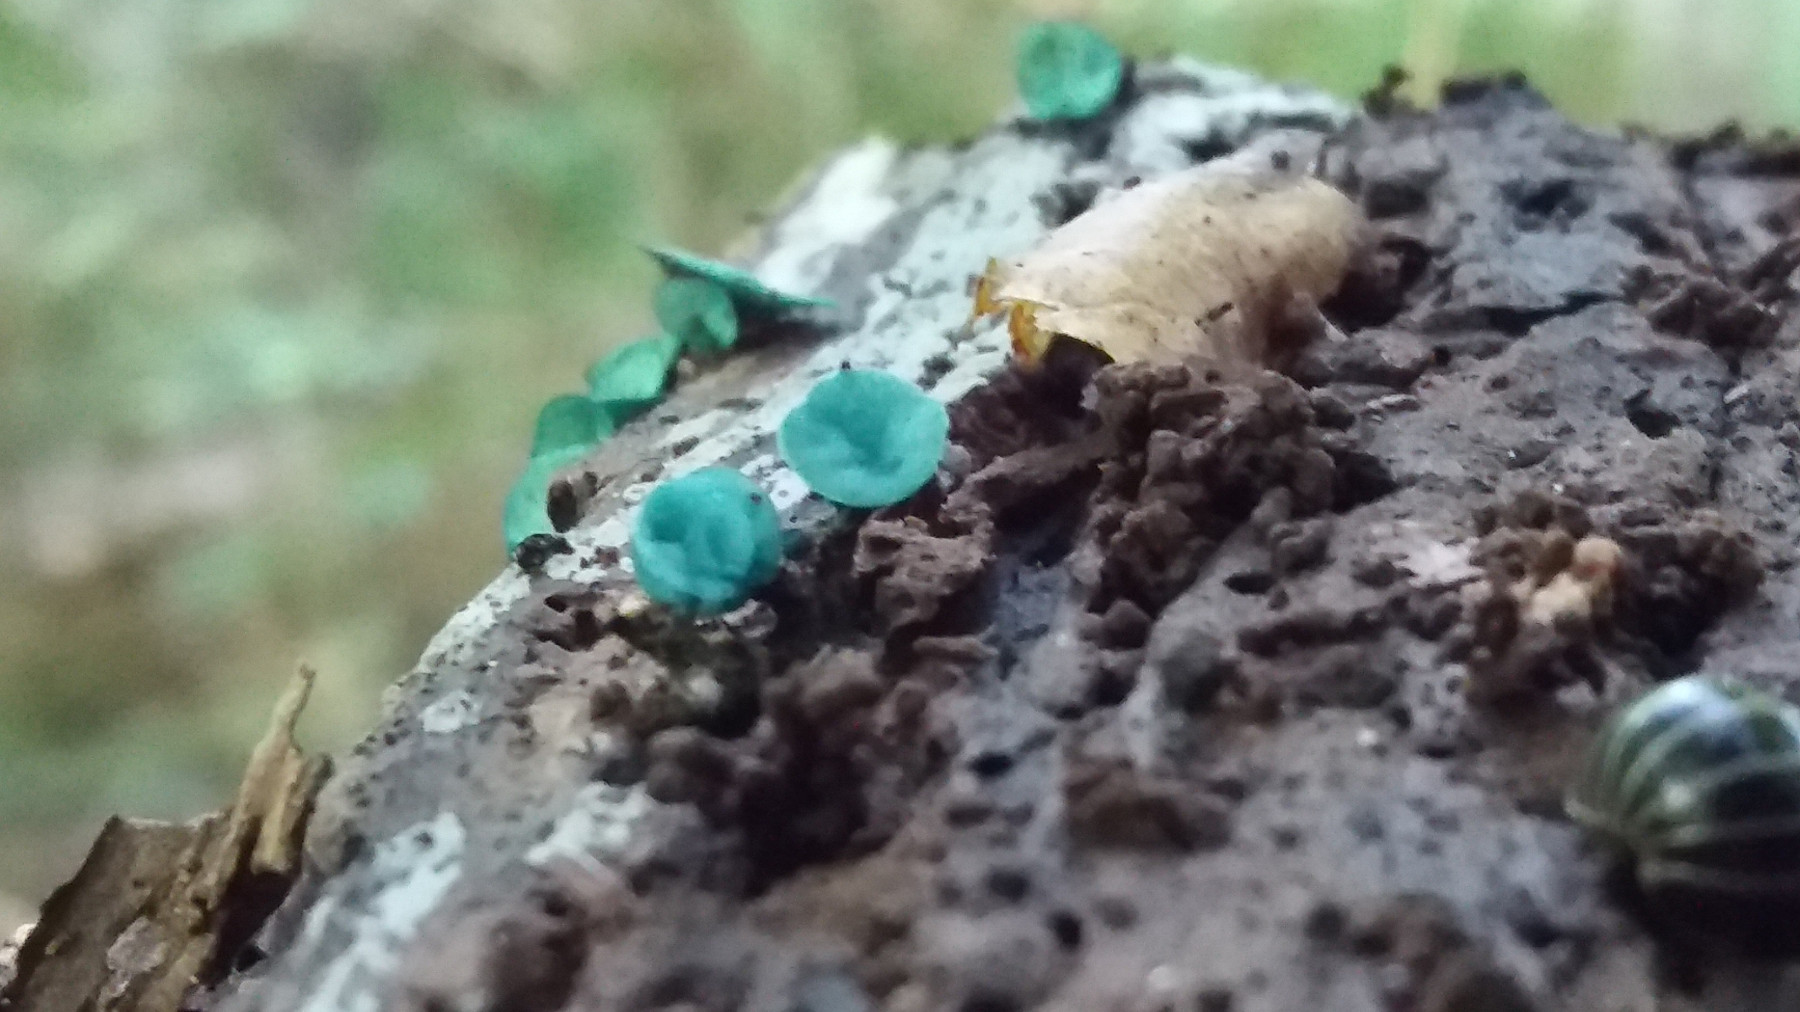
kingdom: Fungi
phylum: Ascomycota
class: Leotiomycetes
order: Helotiales
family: Chlorociboriaceae
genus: Chlorociboria
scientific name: Chlorociboria aeruginascens
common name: almindelig grønskive
